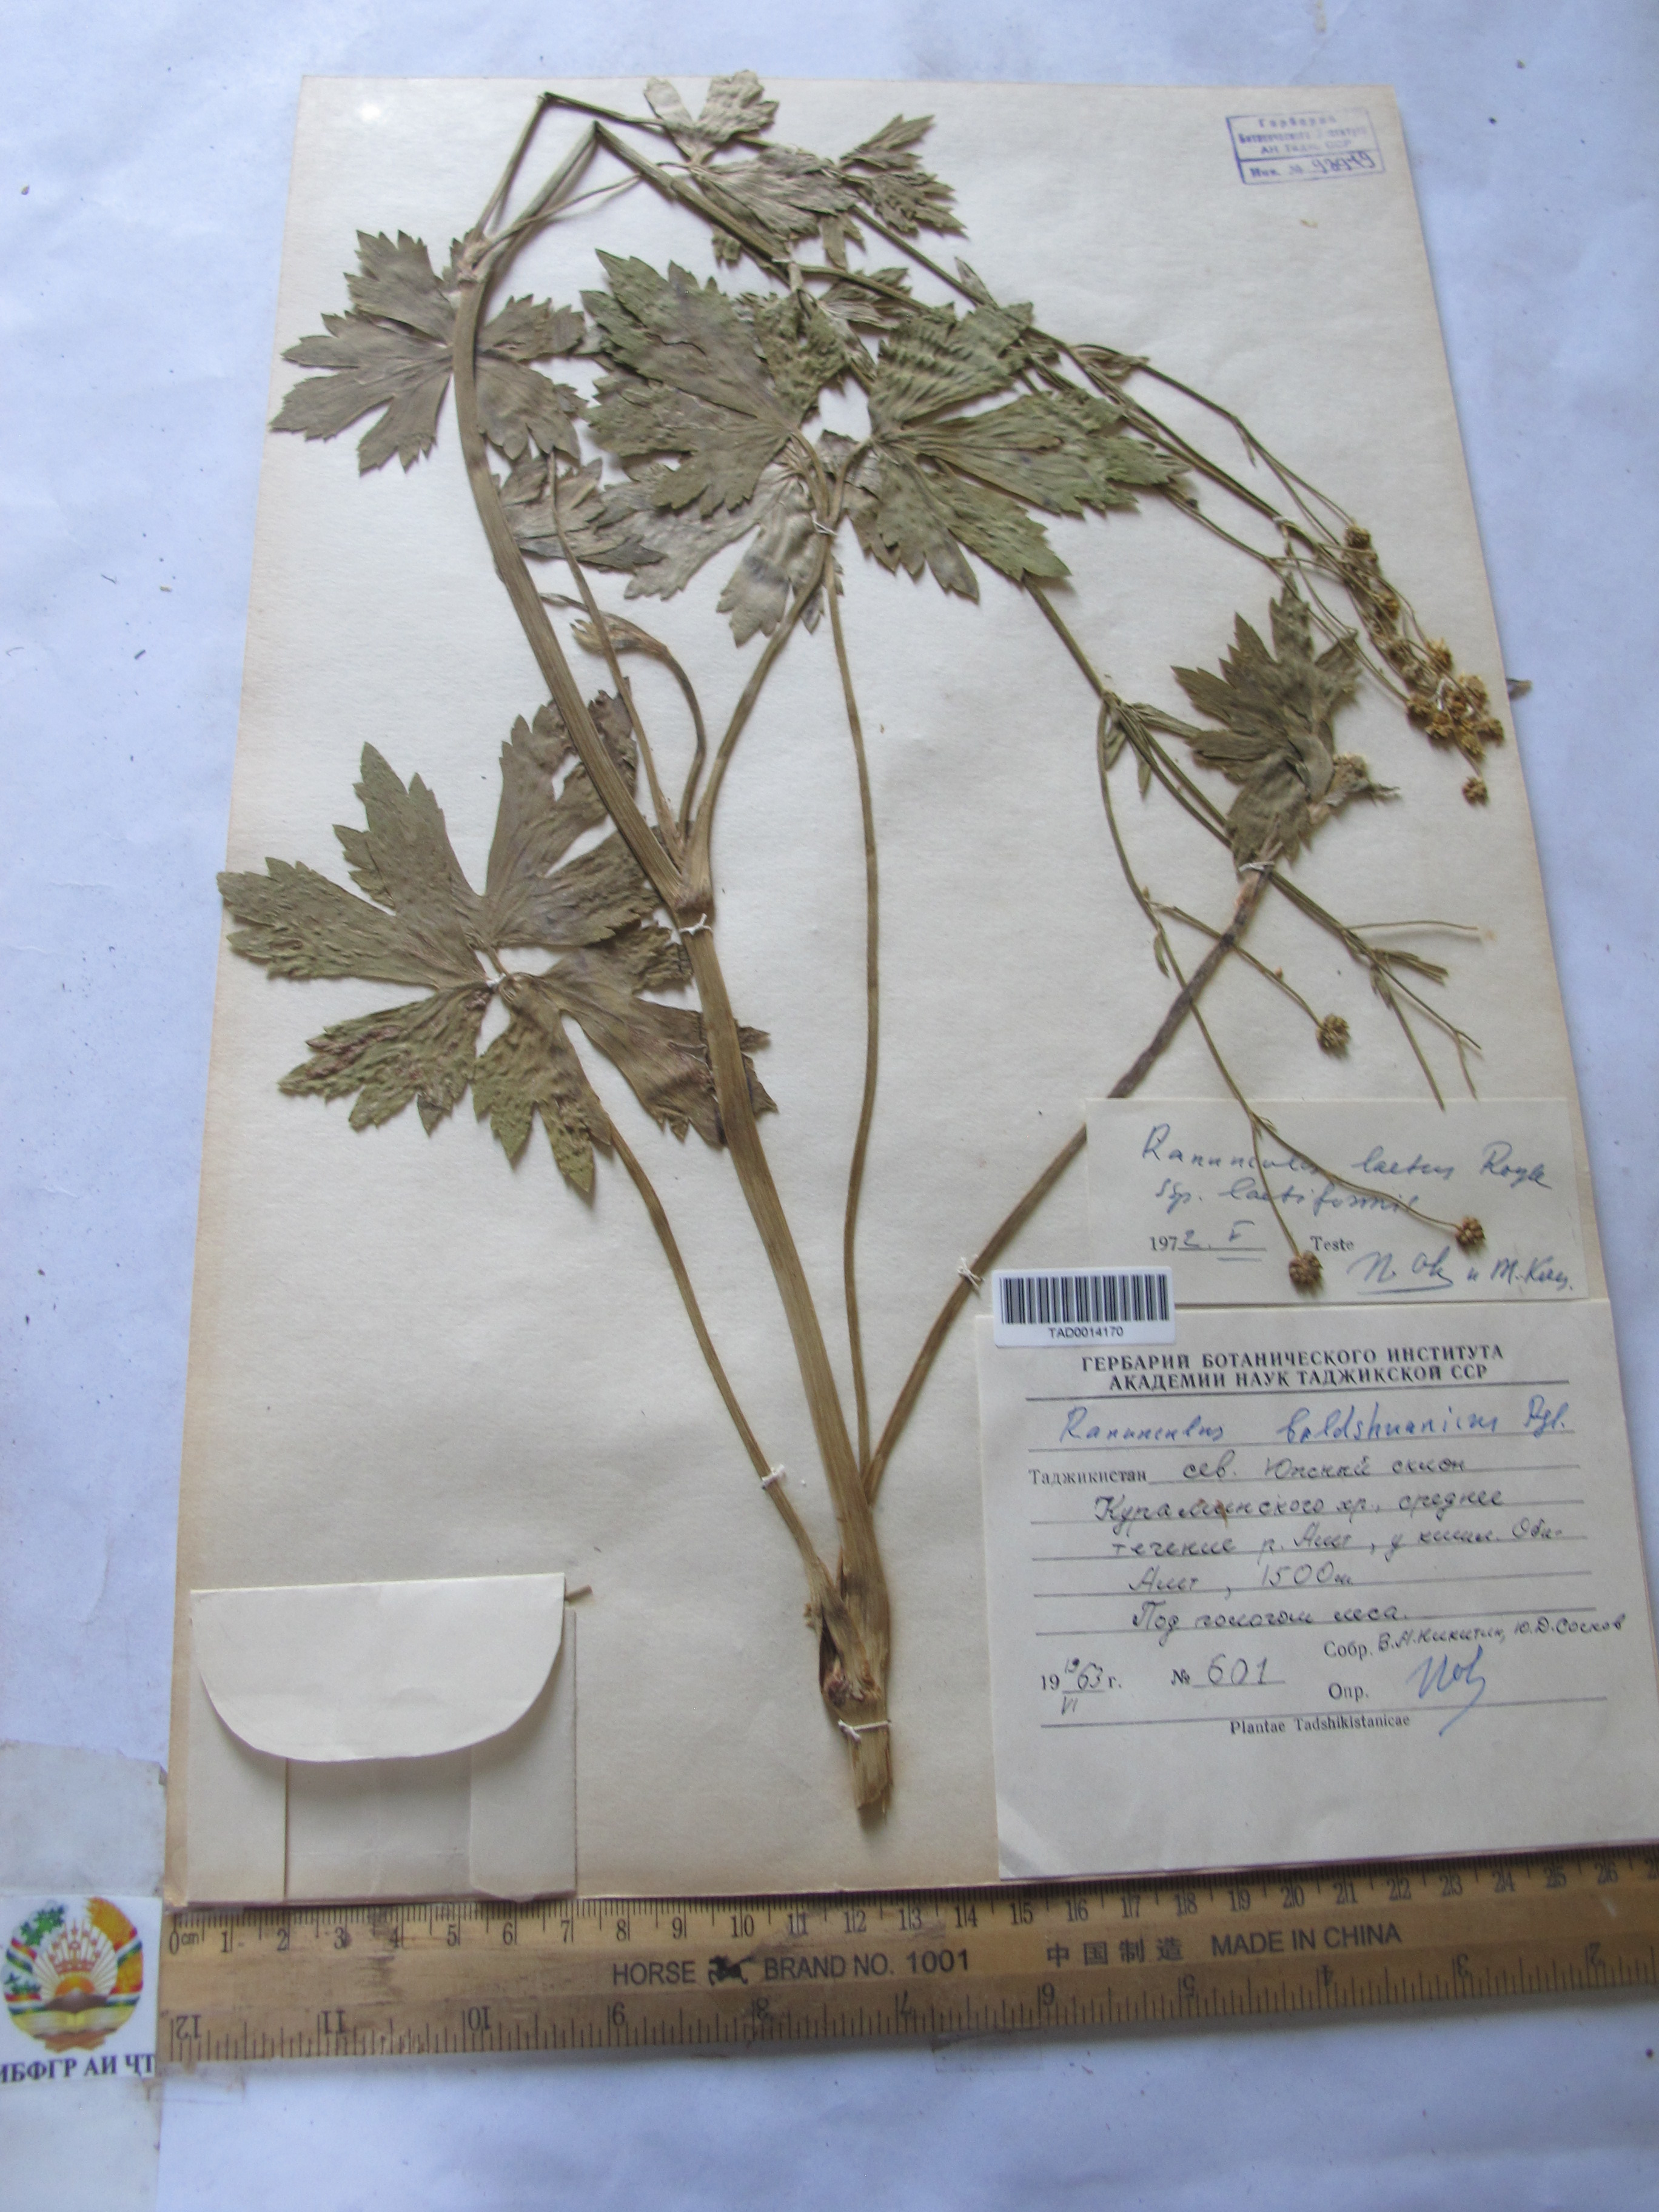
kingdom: Plantae
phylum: Tracheophyta
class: Magnoliopsida
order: Ranunculales
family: Ranunculaceae
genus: Ranunculus
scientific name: Ranunculus distans
